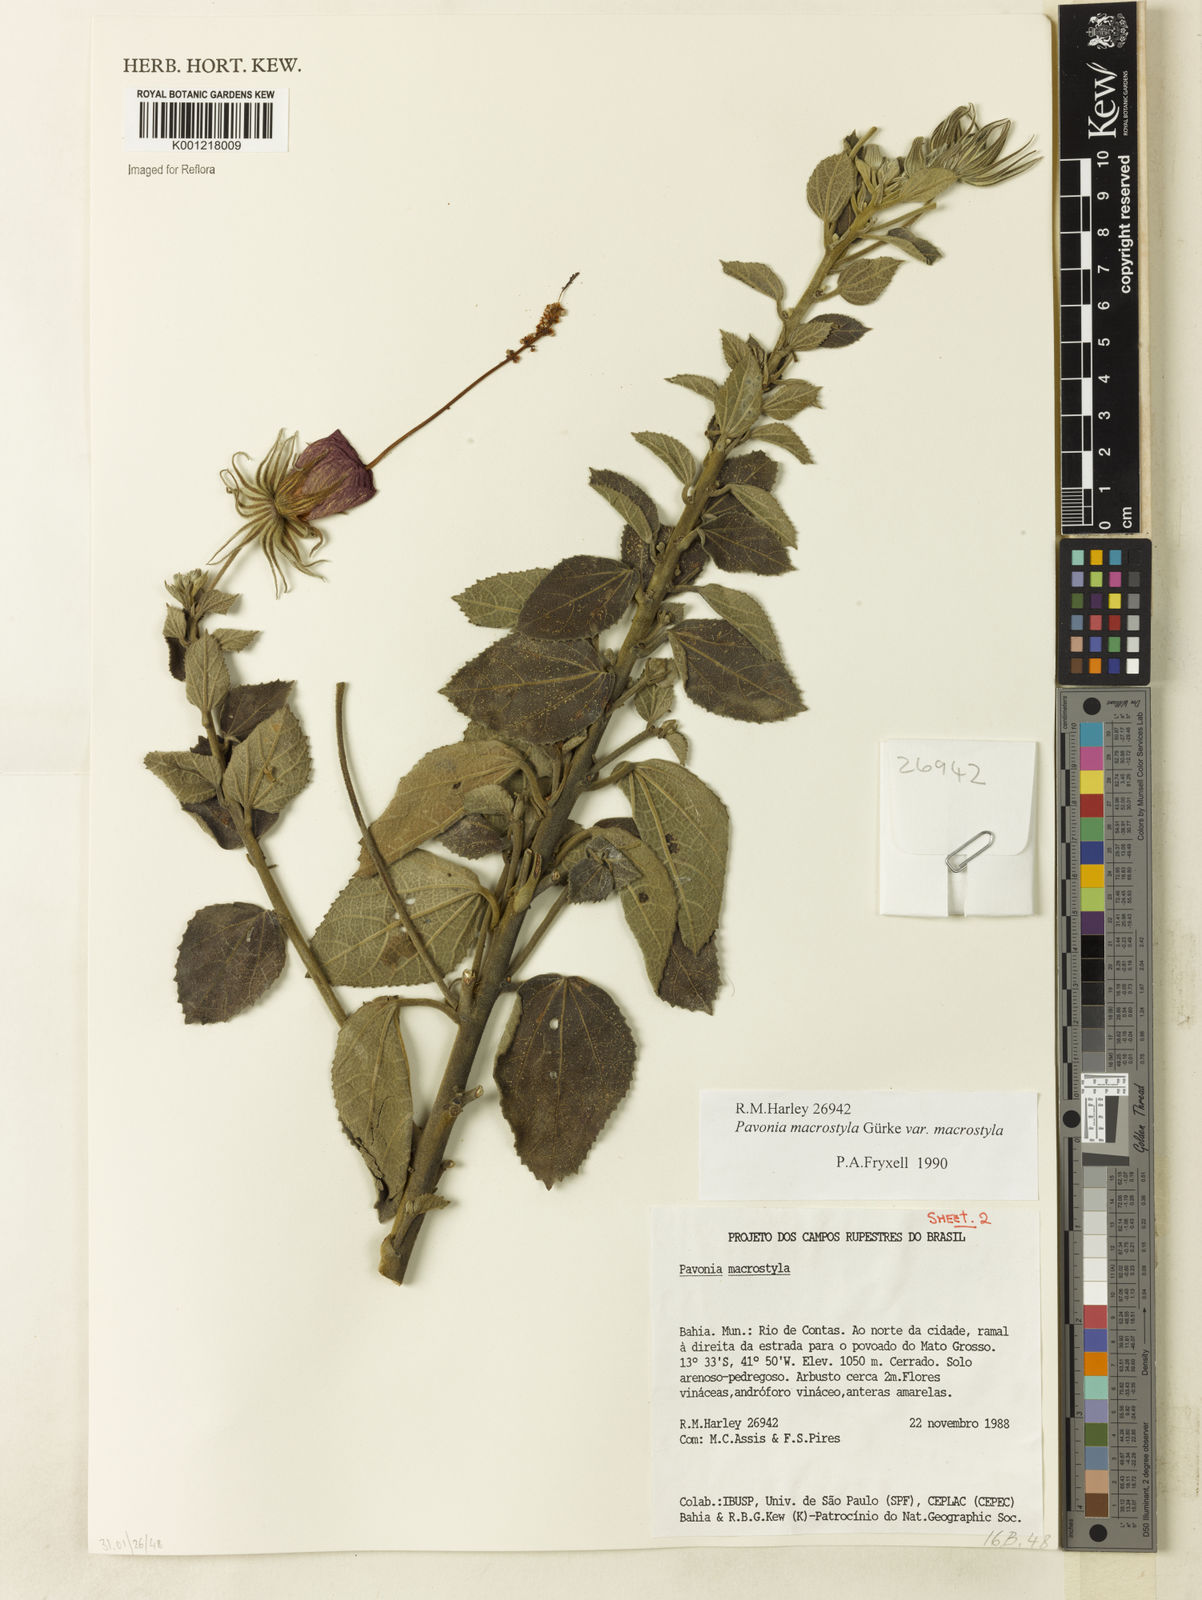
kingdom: Plantae
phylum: Tracheophyta
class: Magnoliopsida
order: Malvales
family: Malvaceae
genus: Pavonia
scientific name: Pavonia macrostyla
